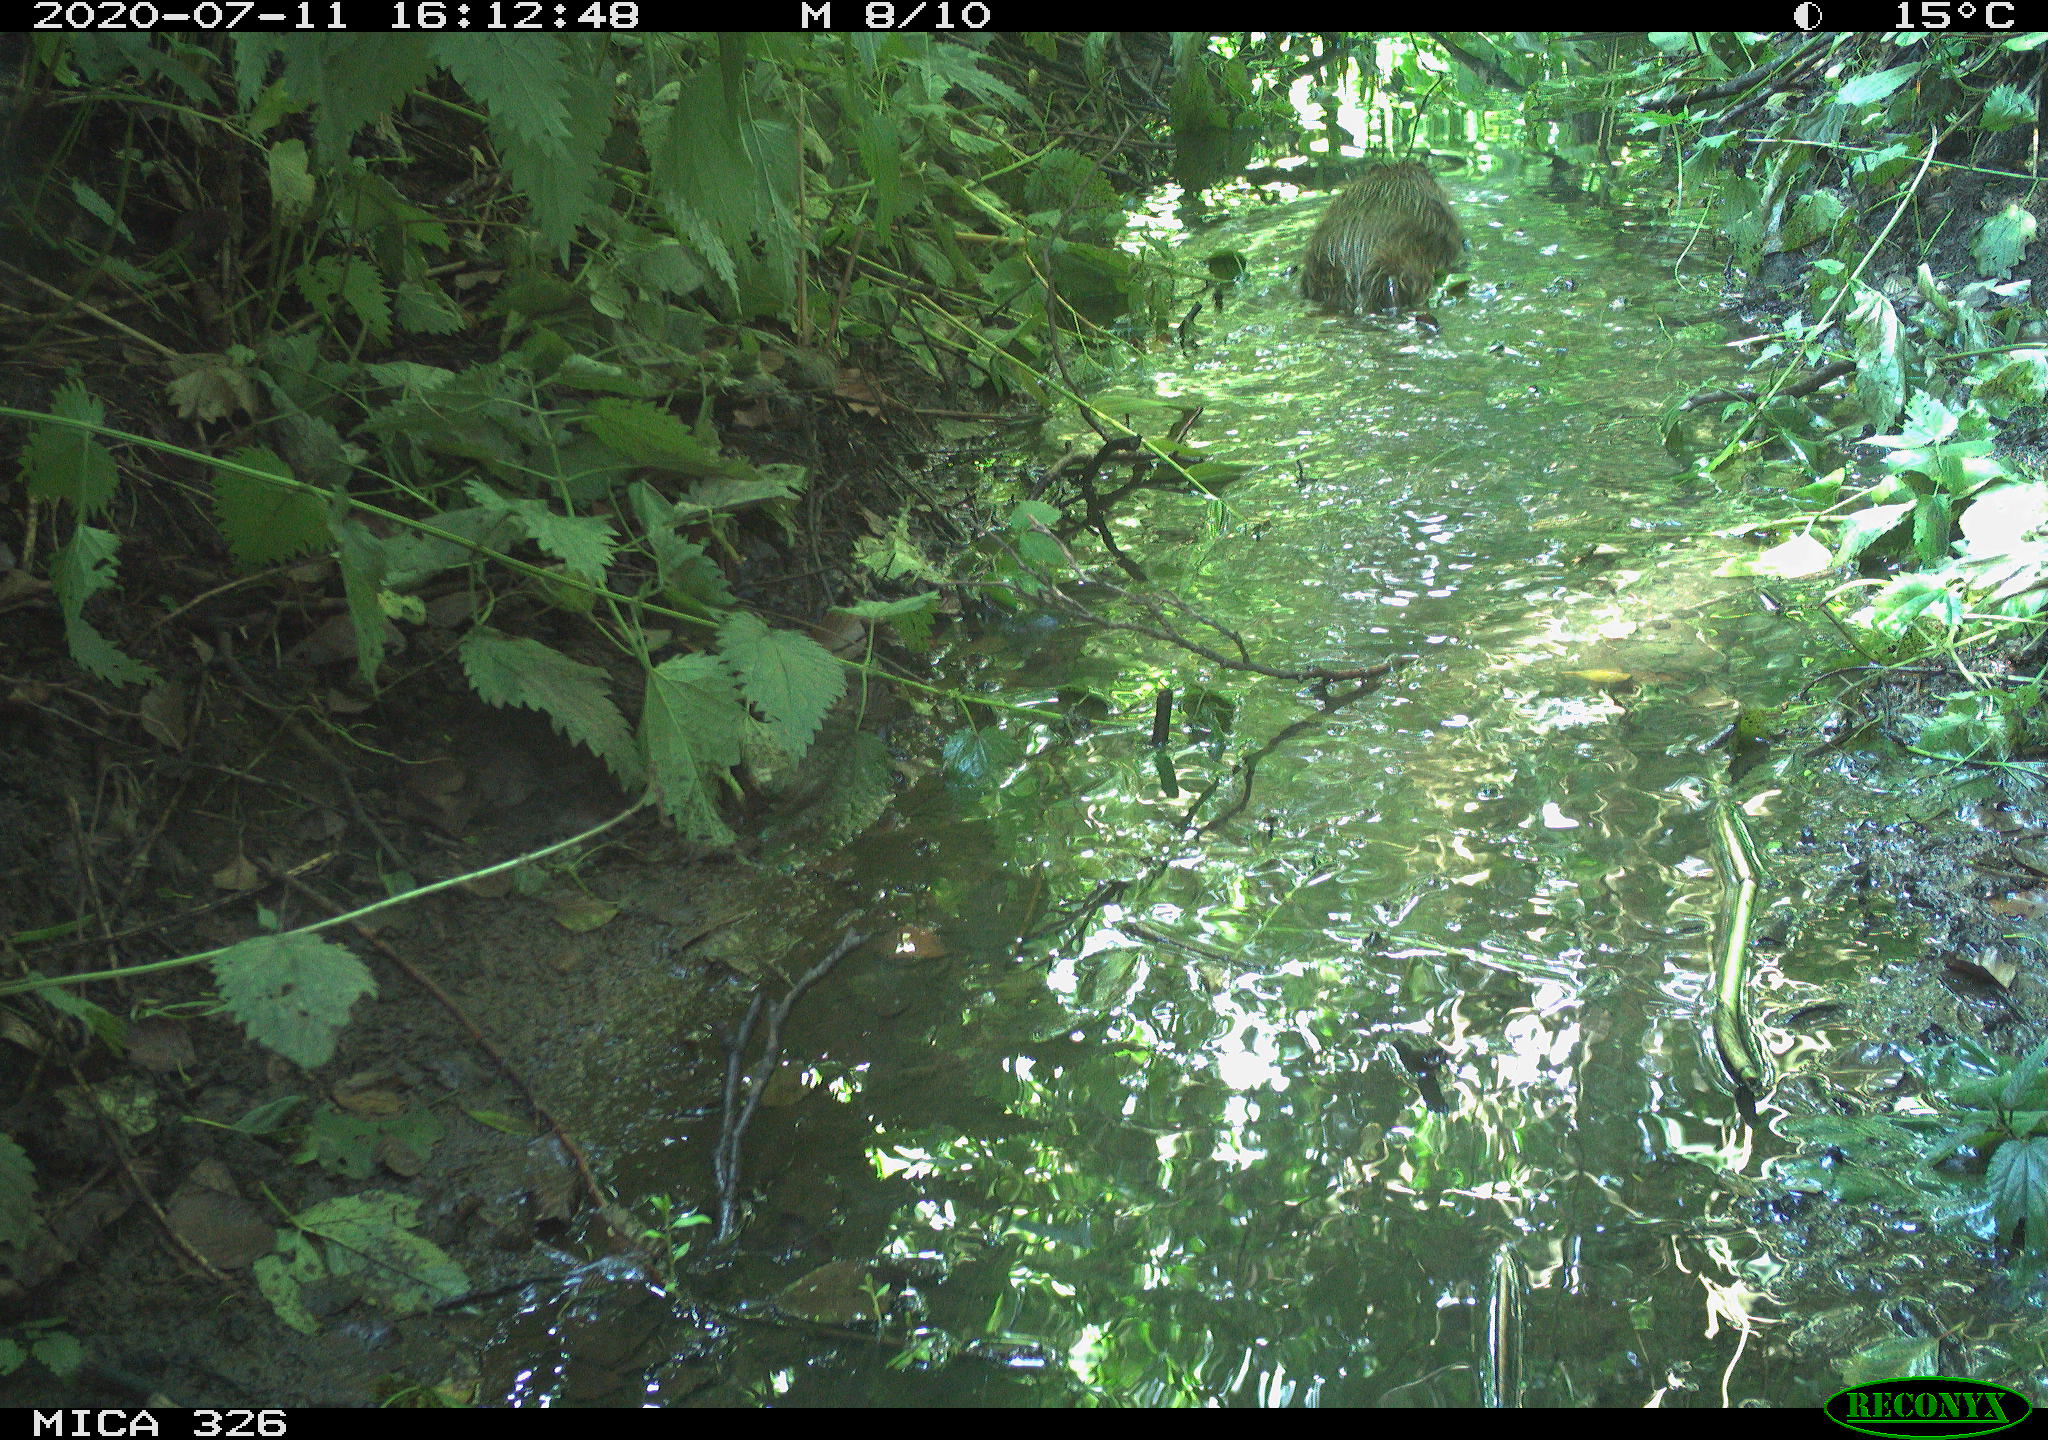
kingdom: Animalia
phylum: Chordata
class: Mammalia
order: Rodentia
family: Myocastoridae
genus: Myocastor
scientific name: Myocastor coypus
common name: Coypu
